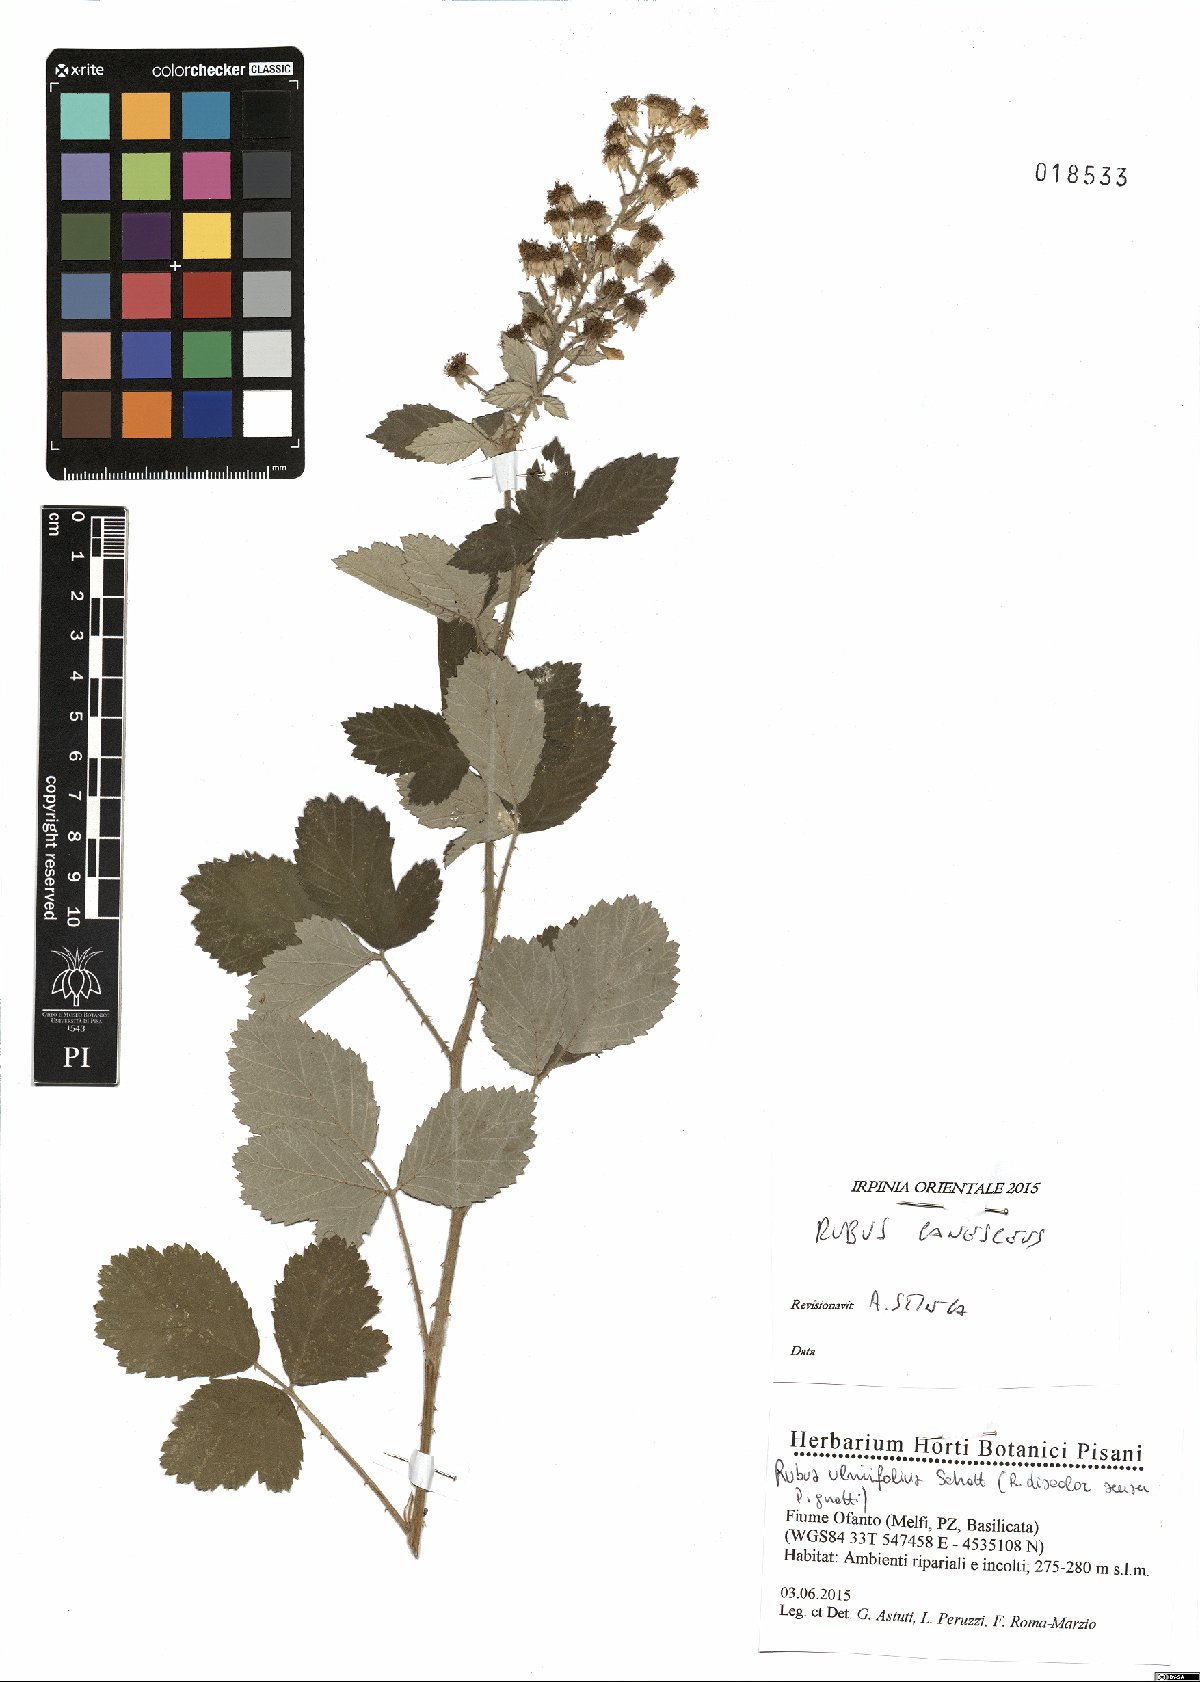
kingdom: Plantae
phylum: Tracheophyta
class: Magnoliopsida
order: Rosales
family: Rosaceae
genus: Rubus
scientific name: Rubus canescens
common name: Wooly blackberry
